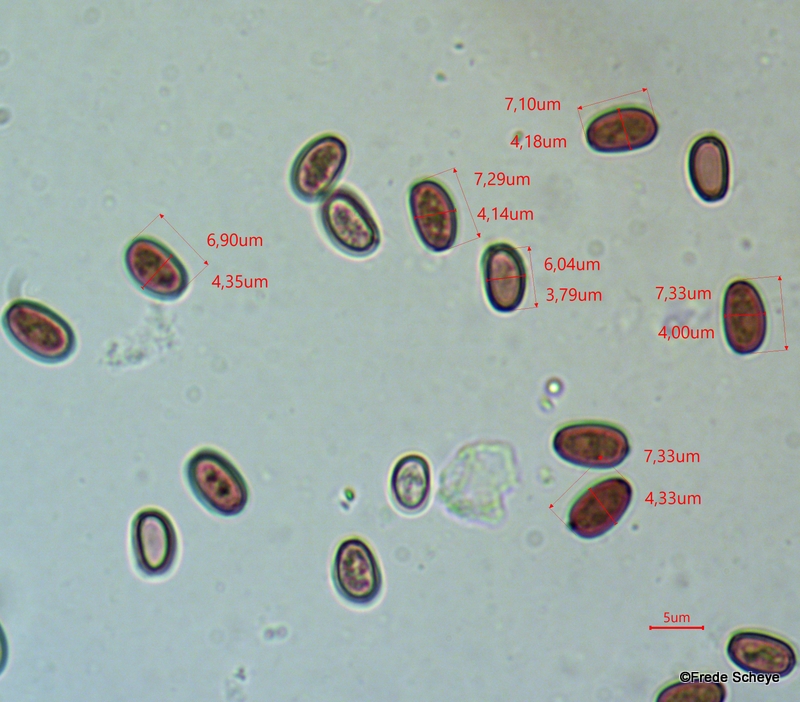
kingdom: Fungi
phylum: Basidiomycota
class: Agaricomycetes
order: Agaricales
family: Psathyrellaceae
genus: Britzelmayria
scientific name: Britzelmayria multipedata
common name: knippe-mørkhat
